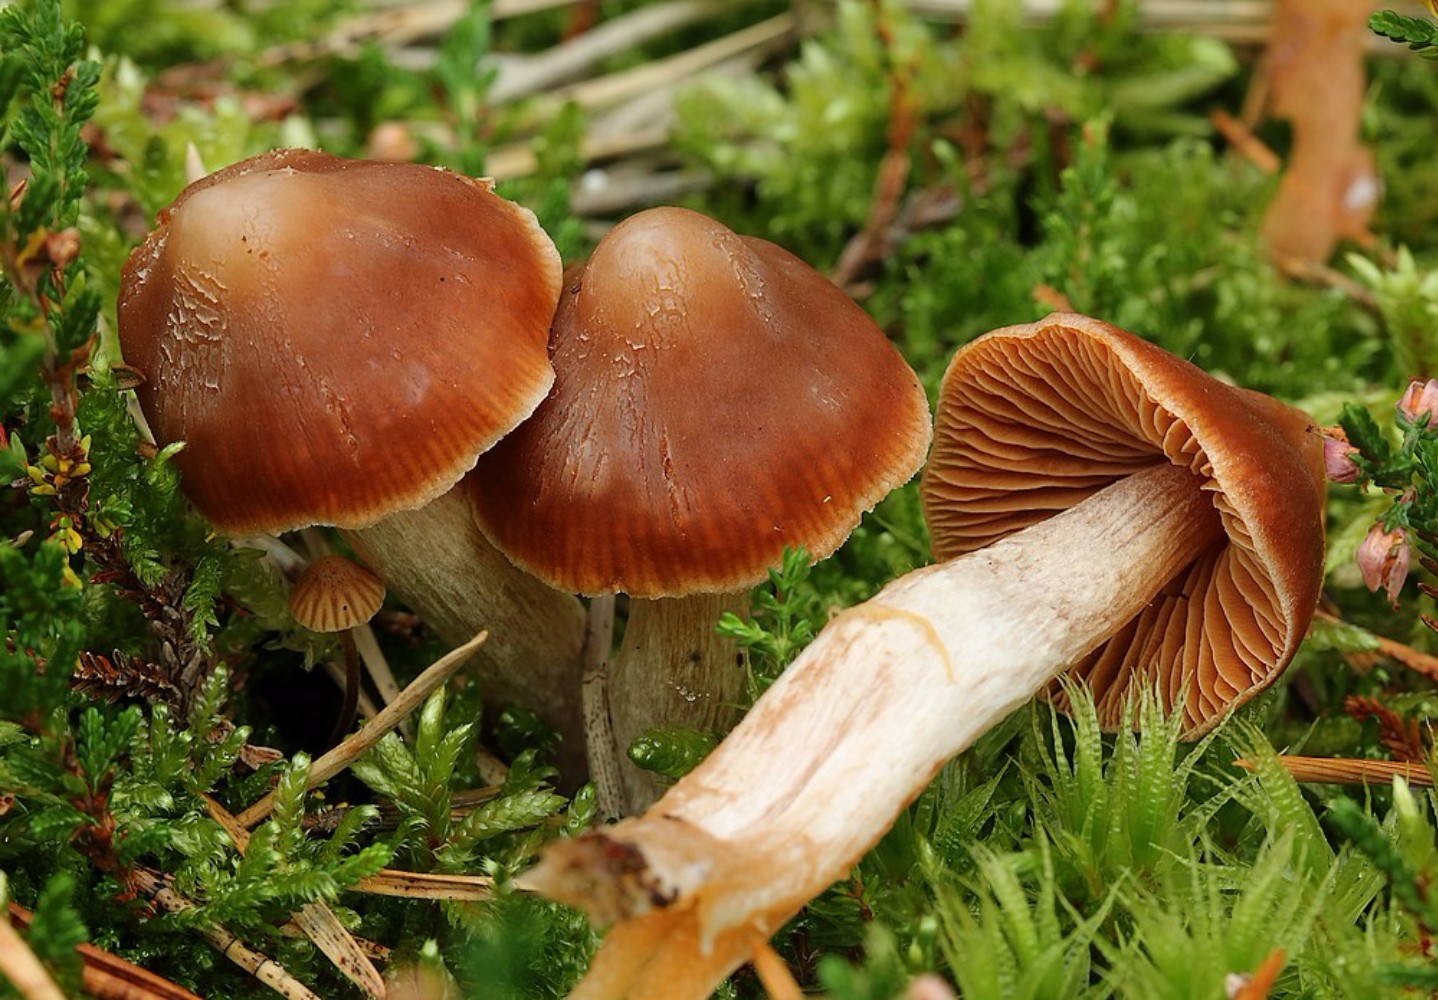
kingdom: Fungi
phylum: Basidiomycota
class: Agaricomycetes
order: Agaricales
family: Cortinariaceae
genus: Cortinarius
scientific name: Cortinarius
